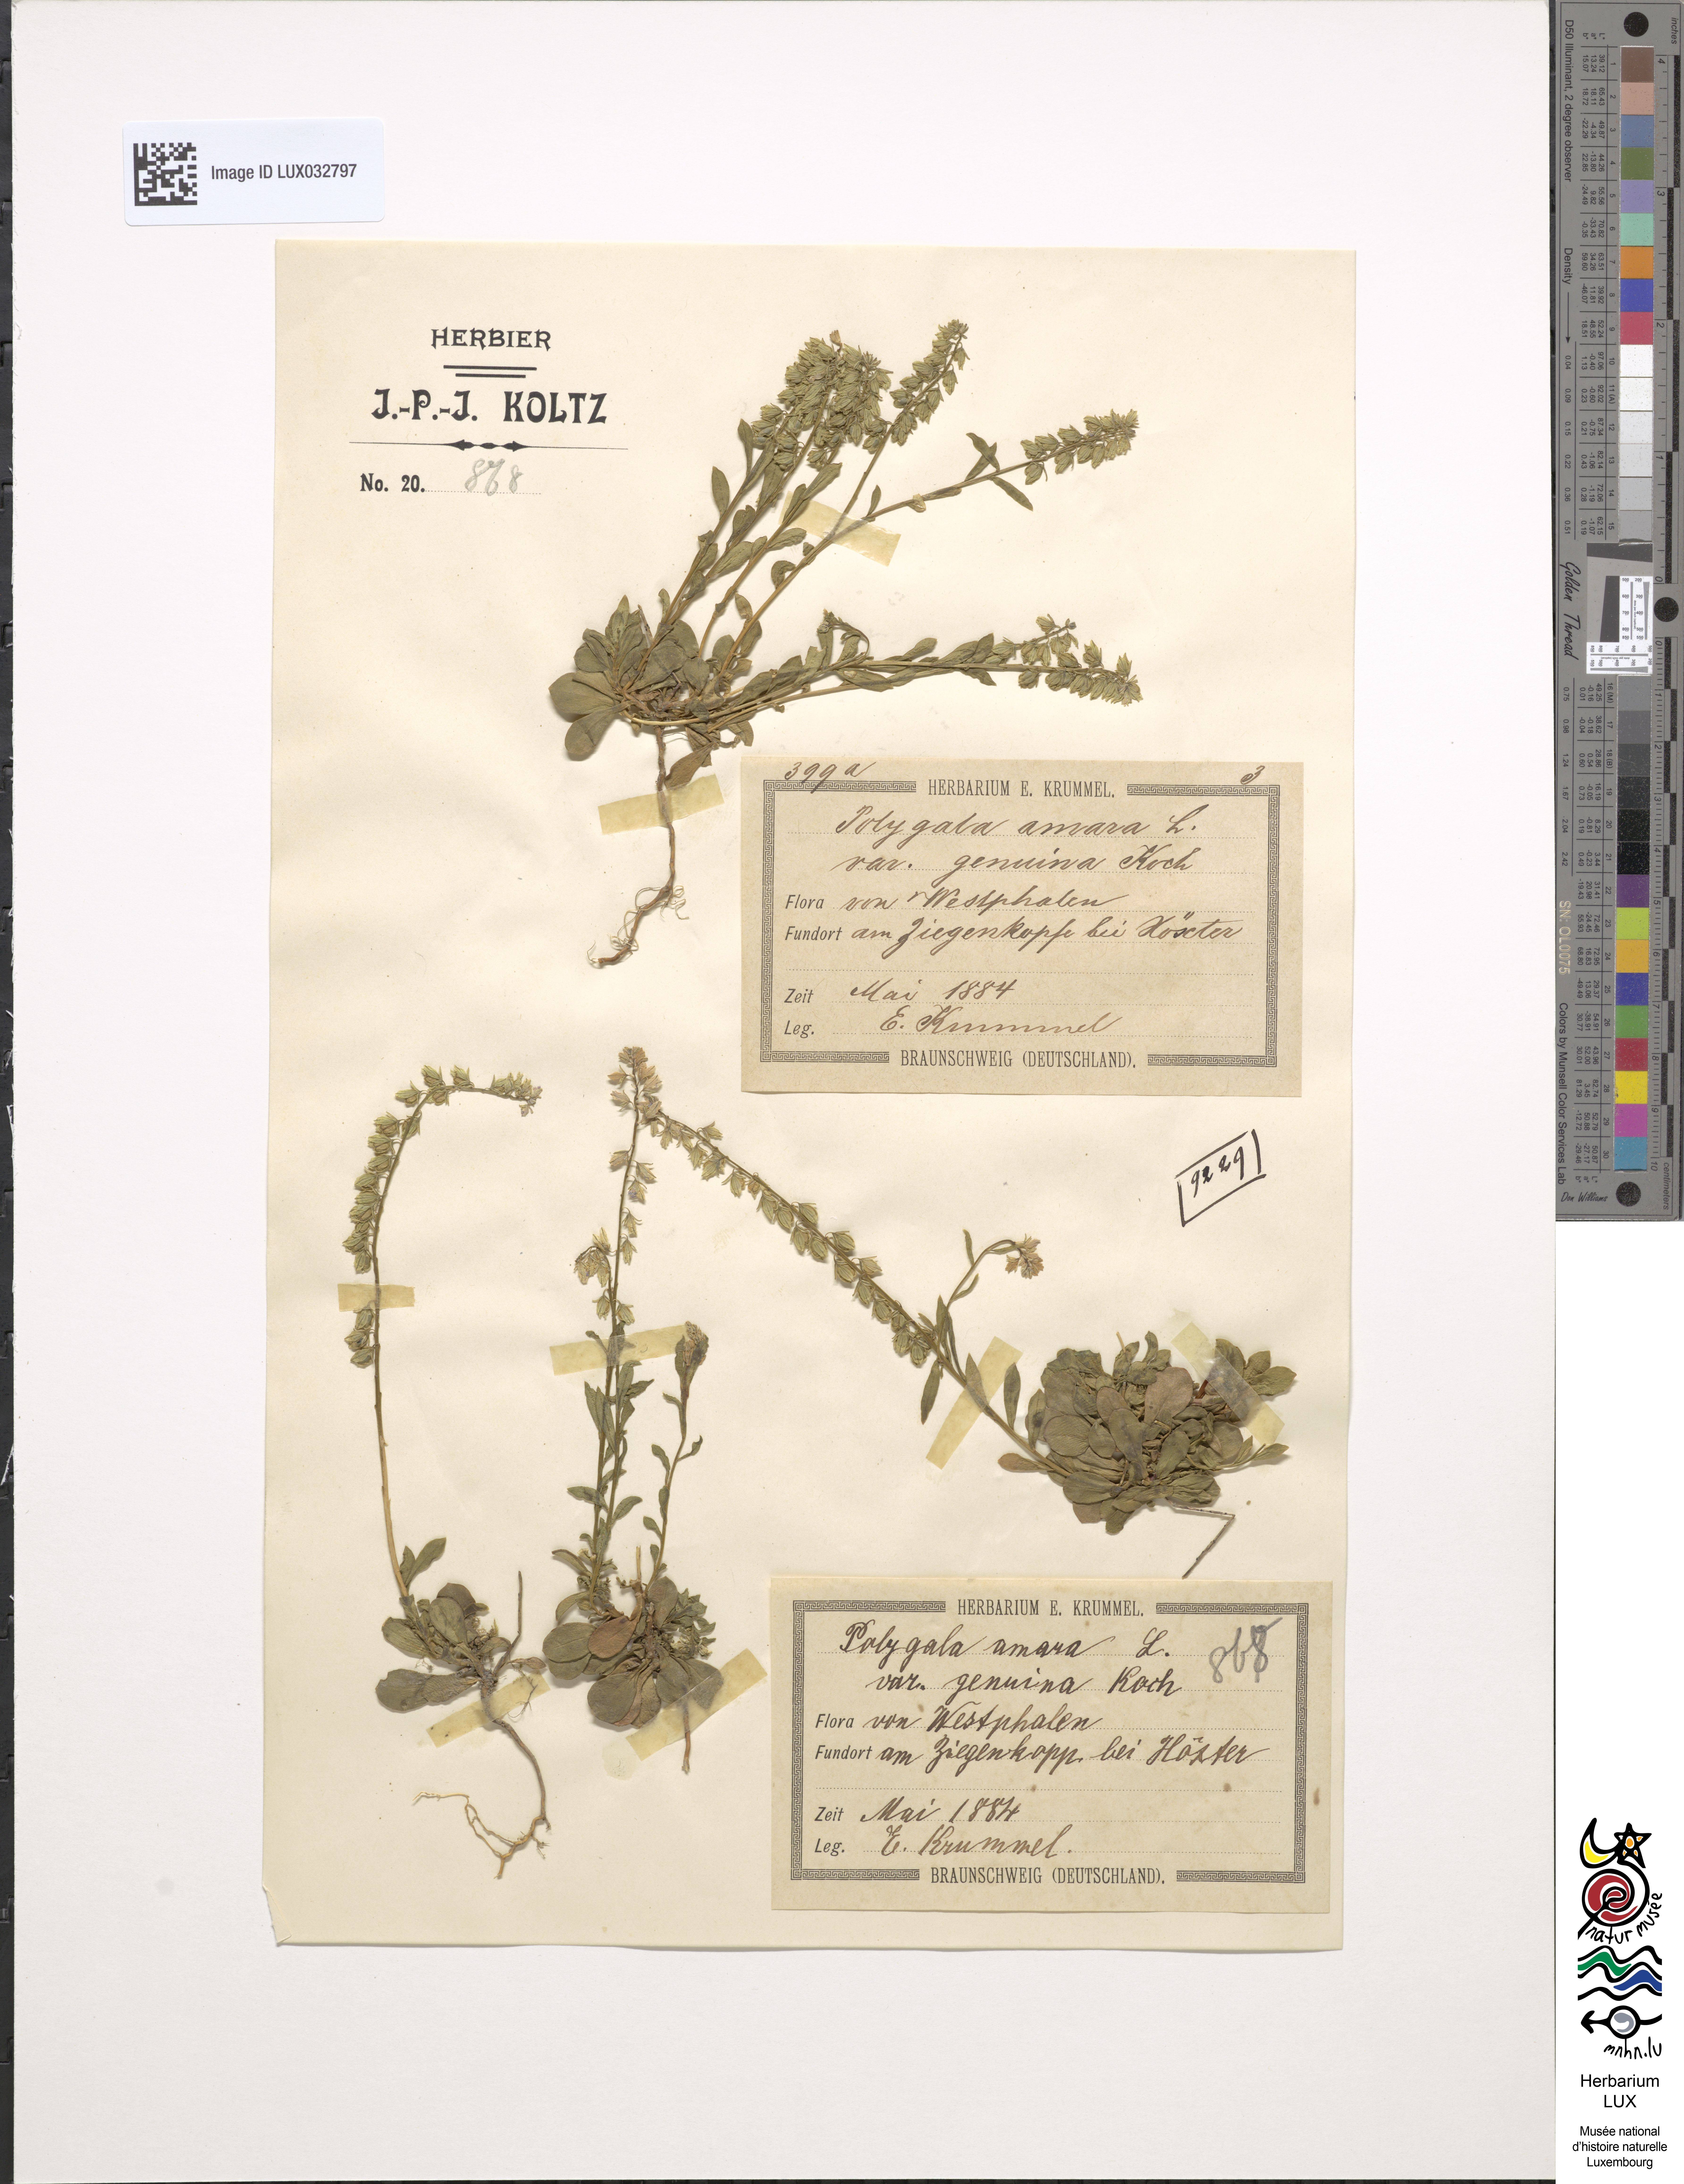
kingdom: Plantae
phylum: Tracheophyta
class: Magnoliopsida
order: Fabales
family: Polygalaceae
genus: Polygala
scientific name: Polygala amara
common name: Milkwort
